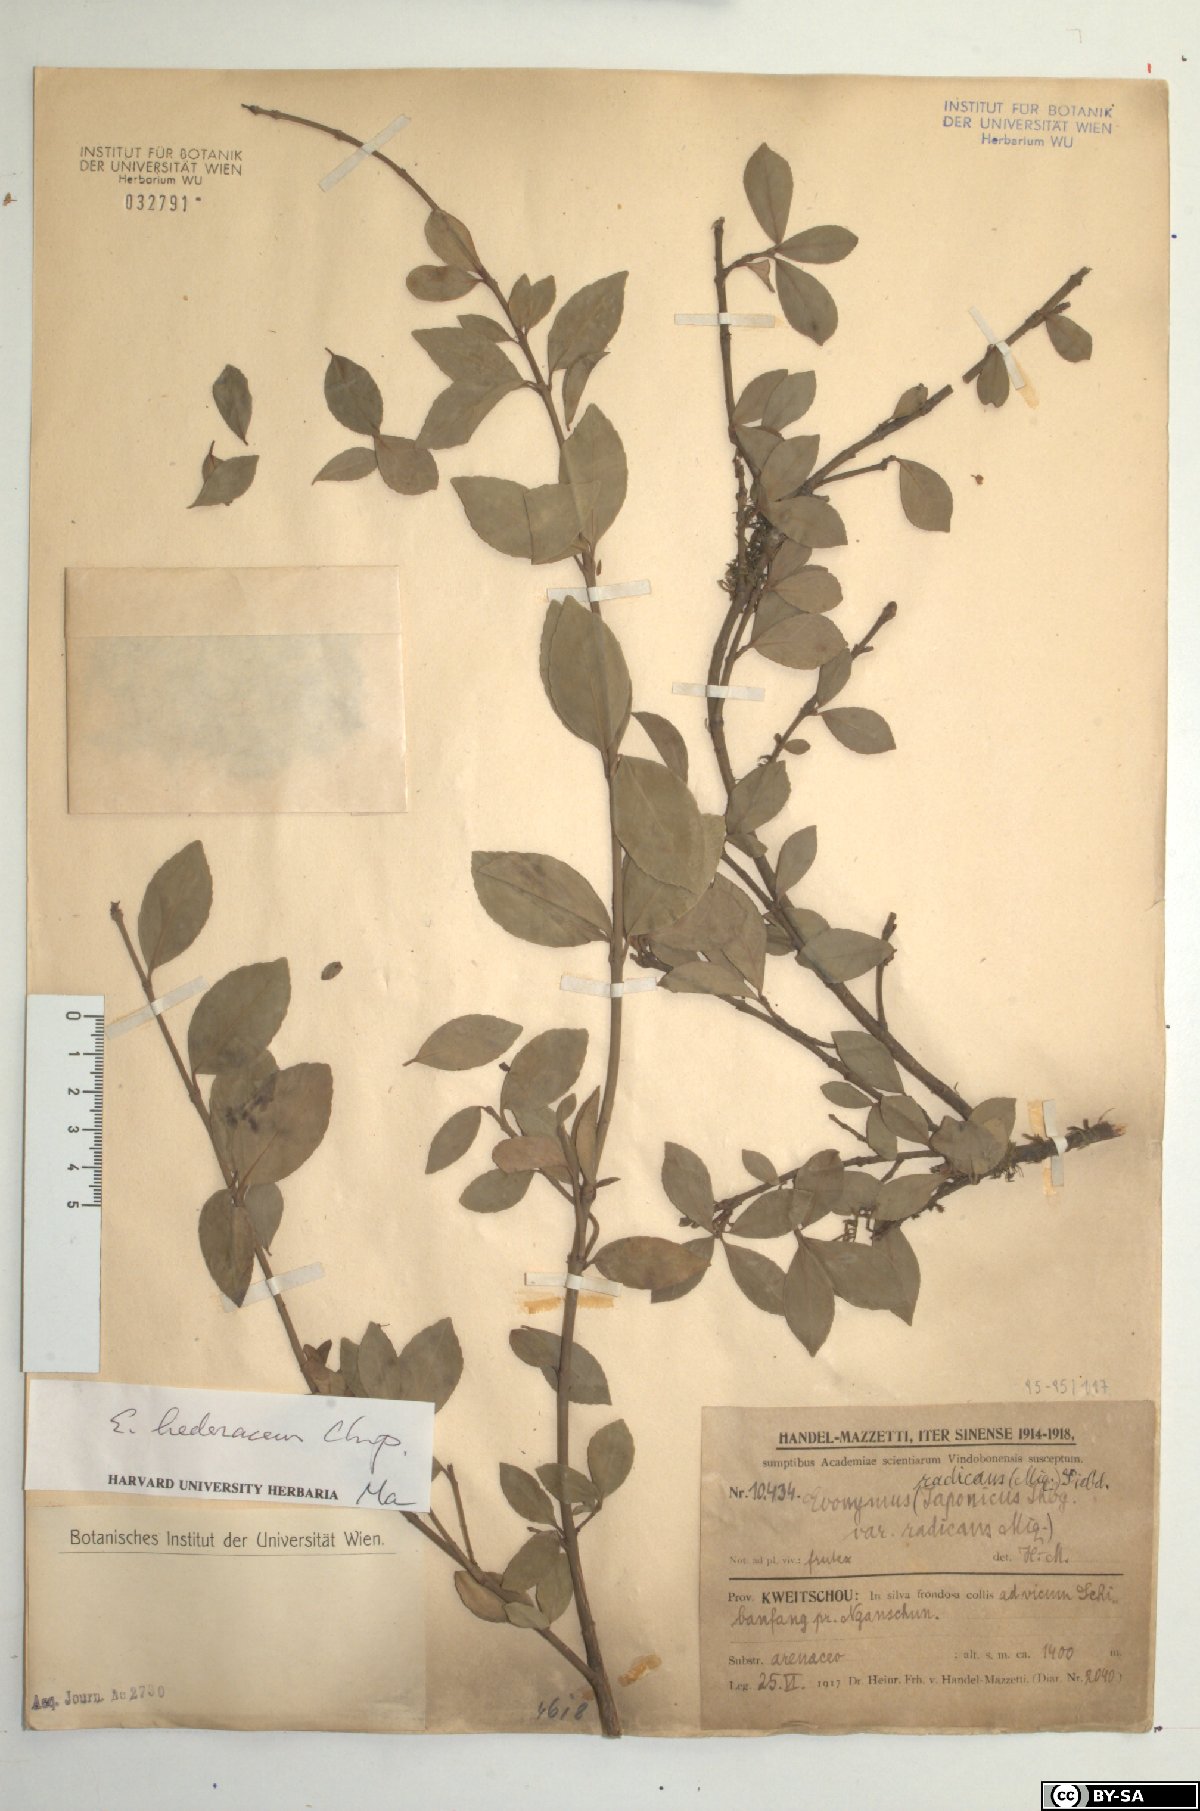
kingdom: Plantae
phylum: Tracheophyta
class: Magnoliopsida
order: Celastrales
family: Celastraceae
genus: Euonymus
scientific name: Euonymus fortunei
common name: Climbing euonymus
